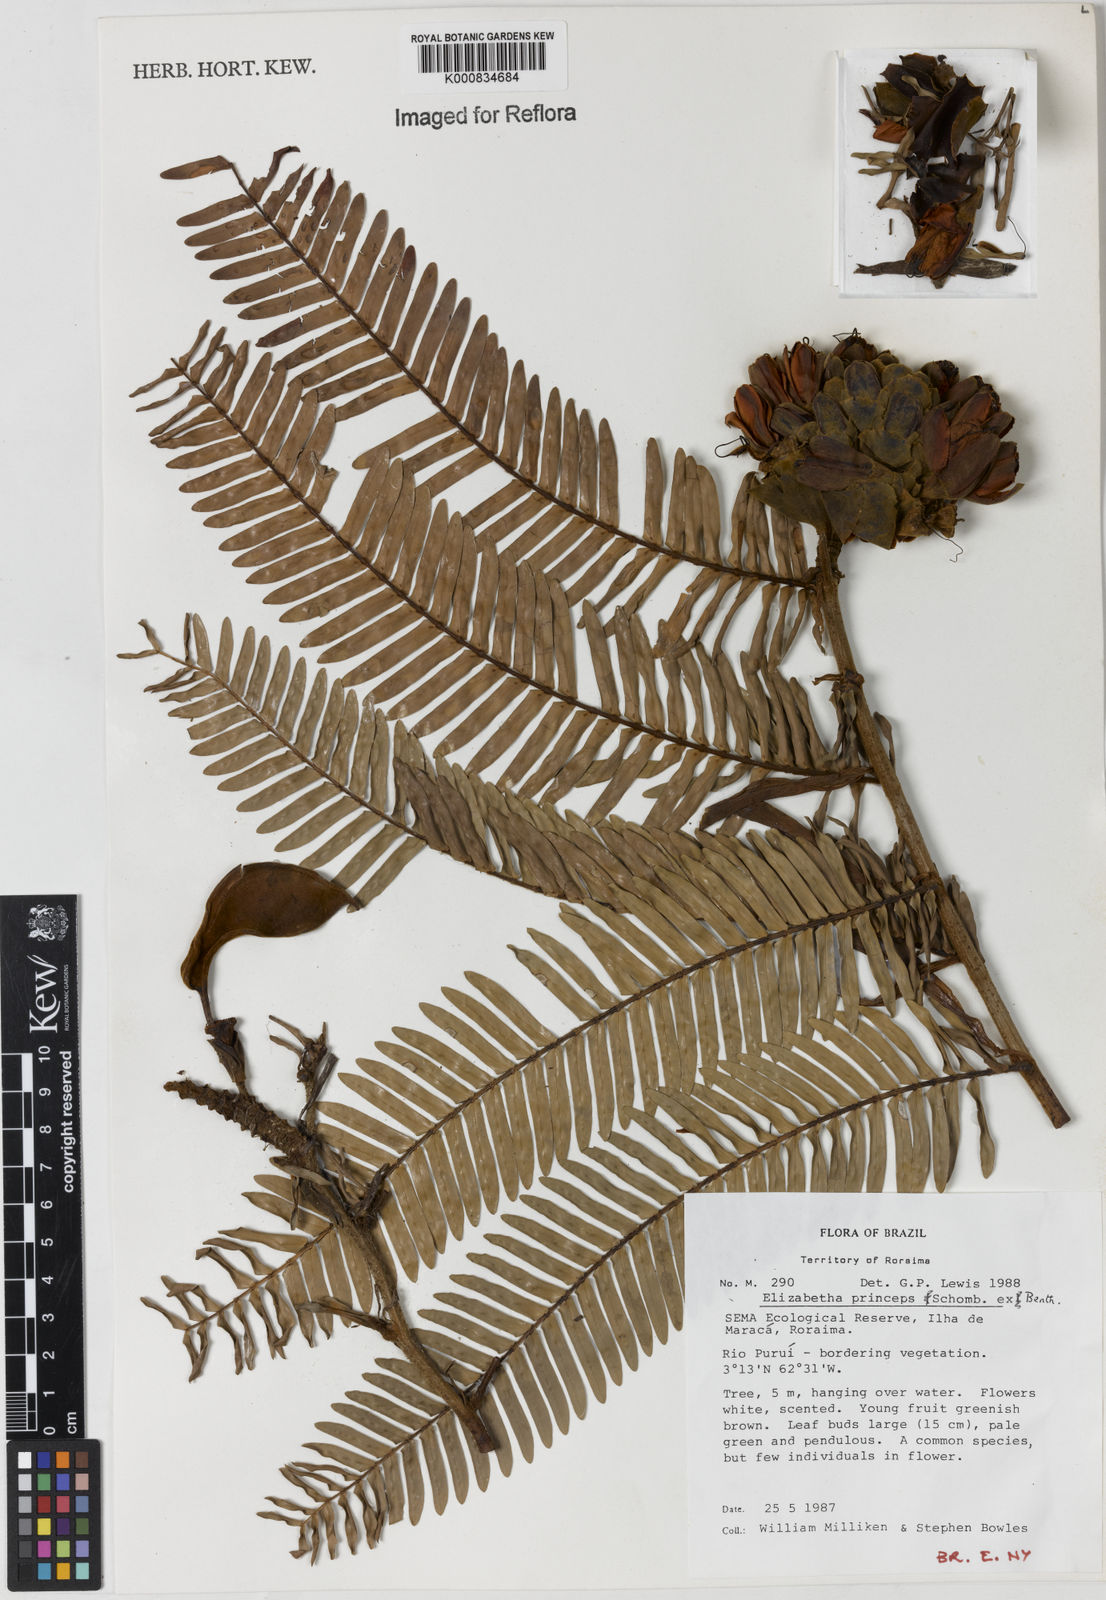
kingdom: Plantae
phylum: Tracheophyta
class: Magnoliopsida
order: Fabales
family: Fabaceae
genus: Paloue
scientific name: Paloue princeps
